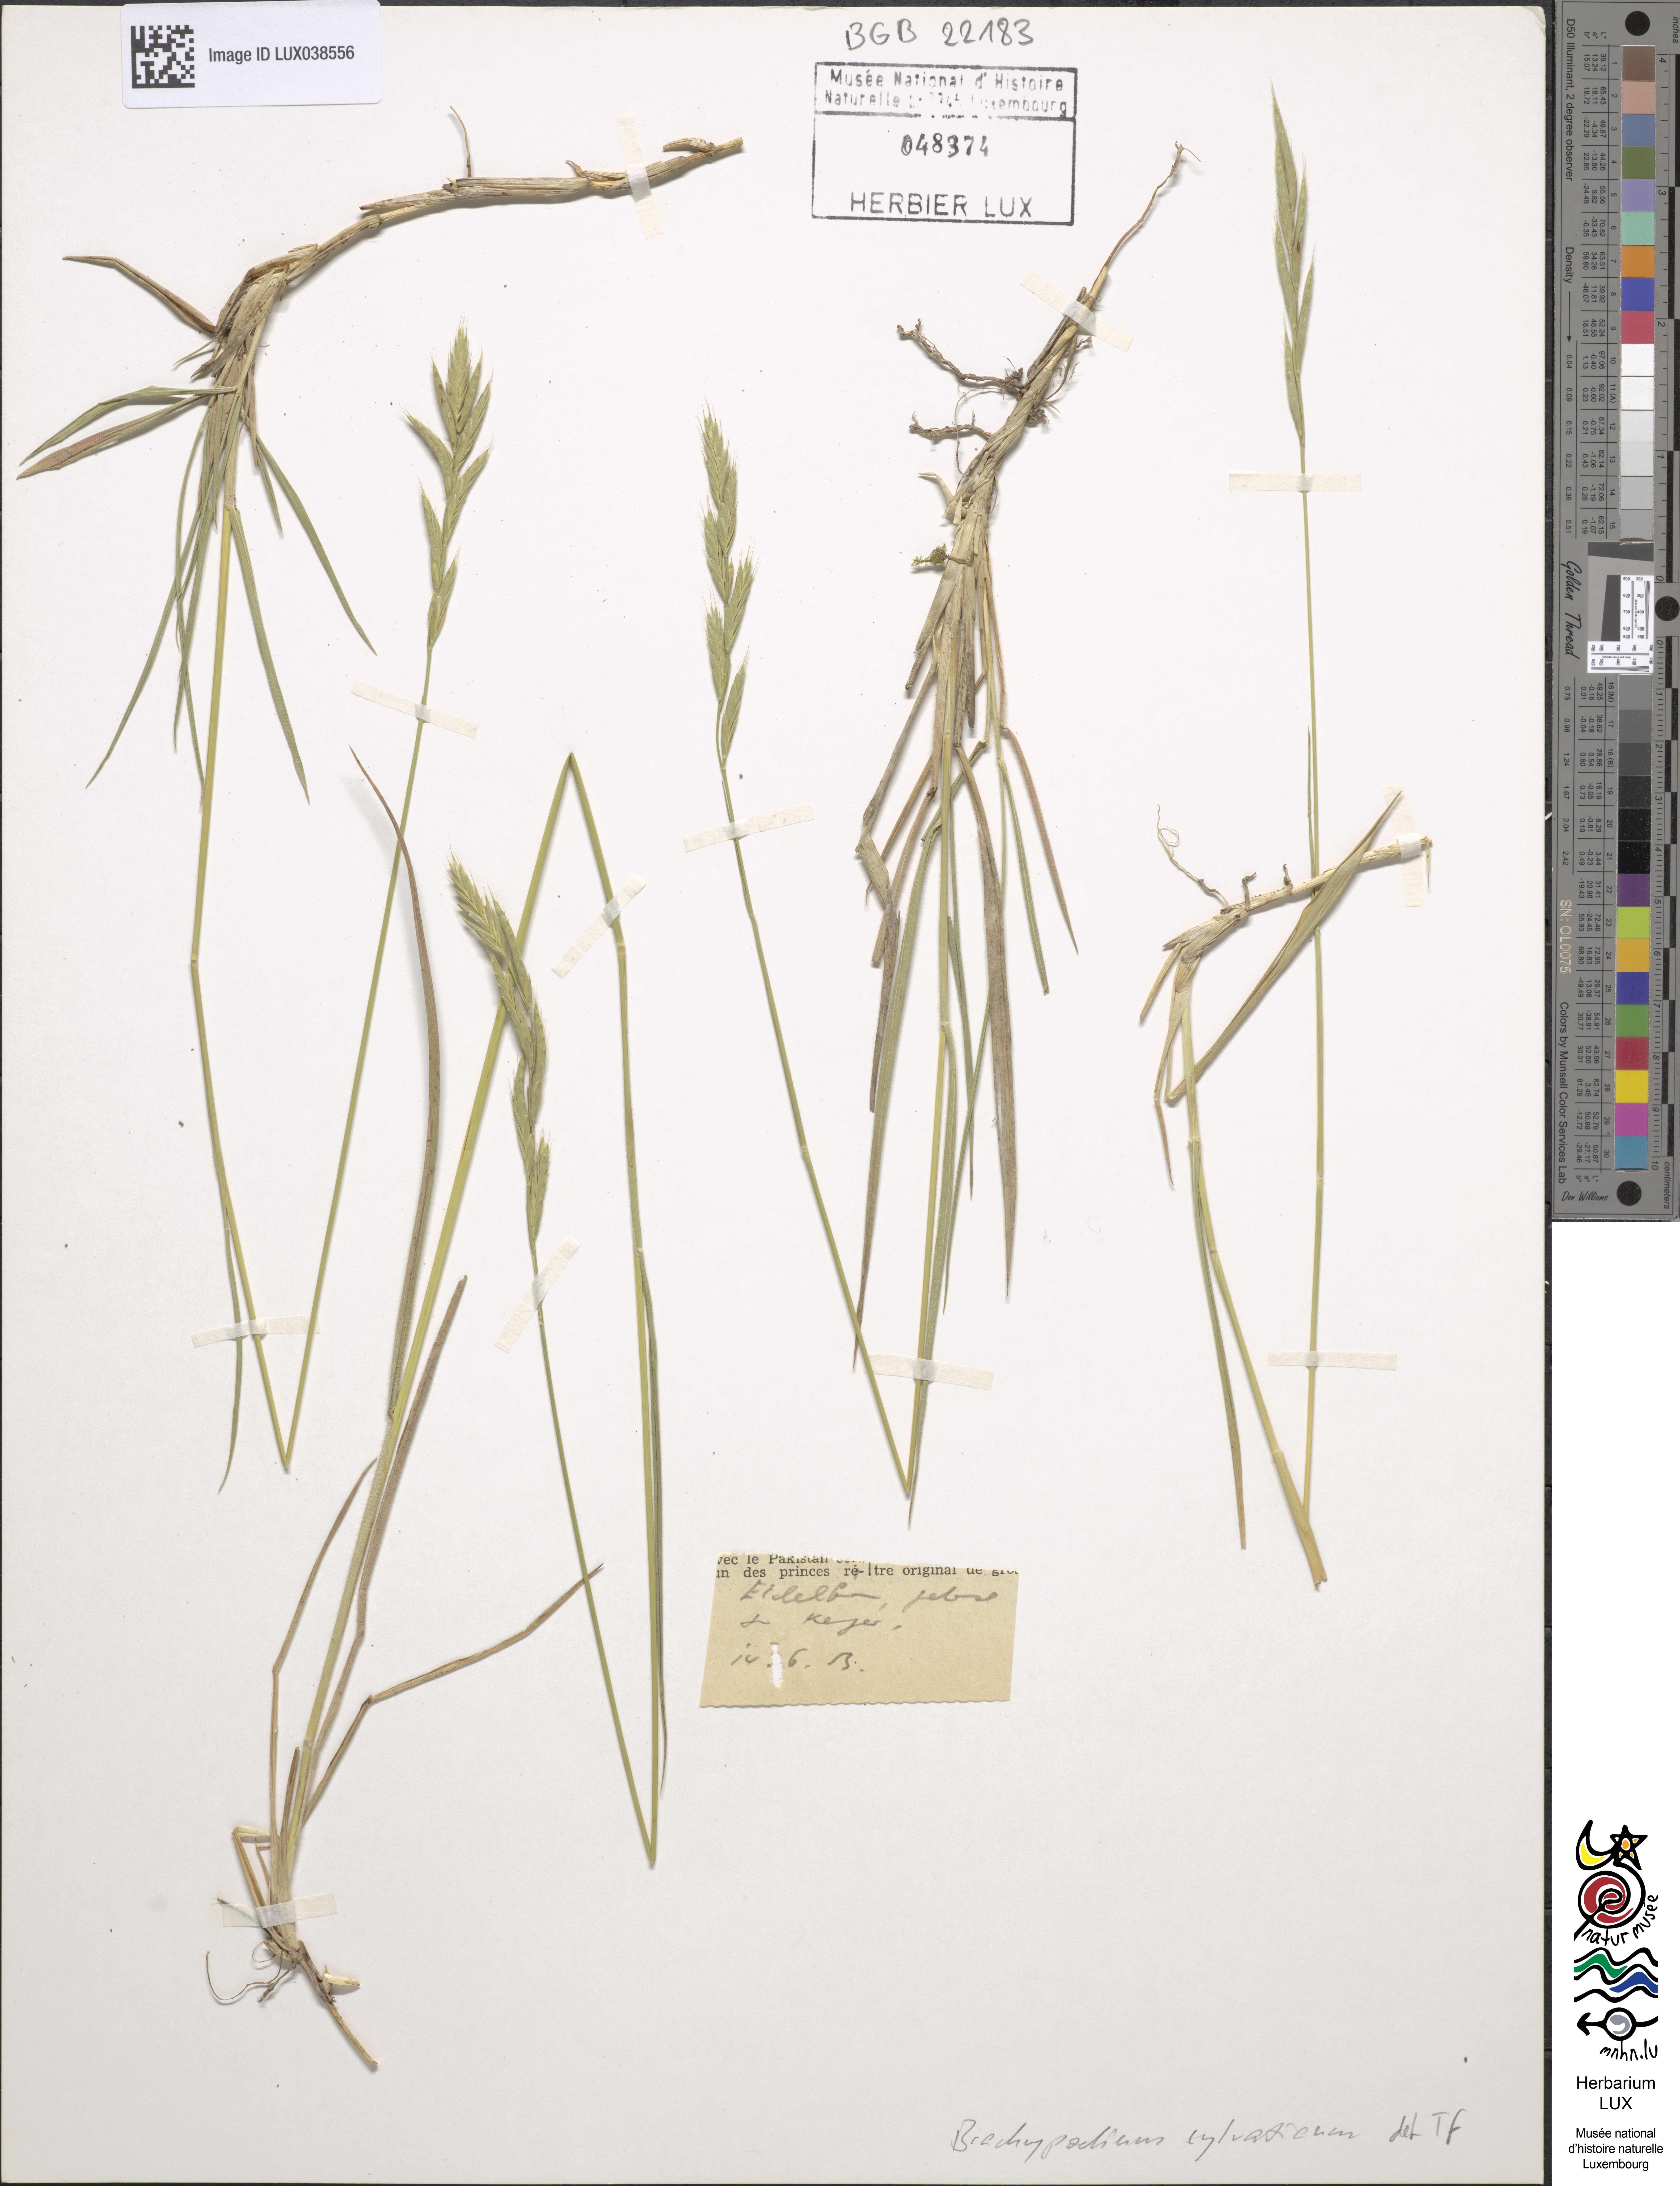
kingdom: Plantae
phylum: Tracheophyta
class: Liliopsida
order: Poales
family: Poaceae
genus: Brachypodium
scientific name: Brachypodium sylvaticum
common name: False-brome
